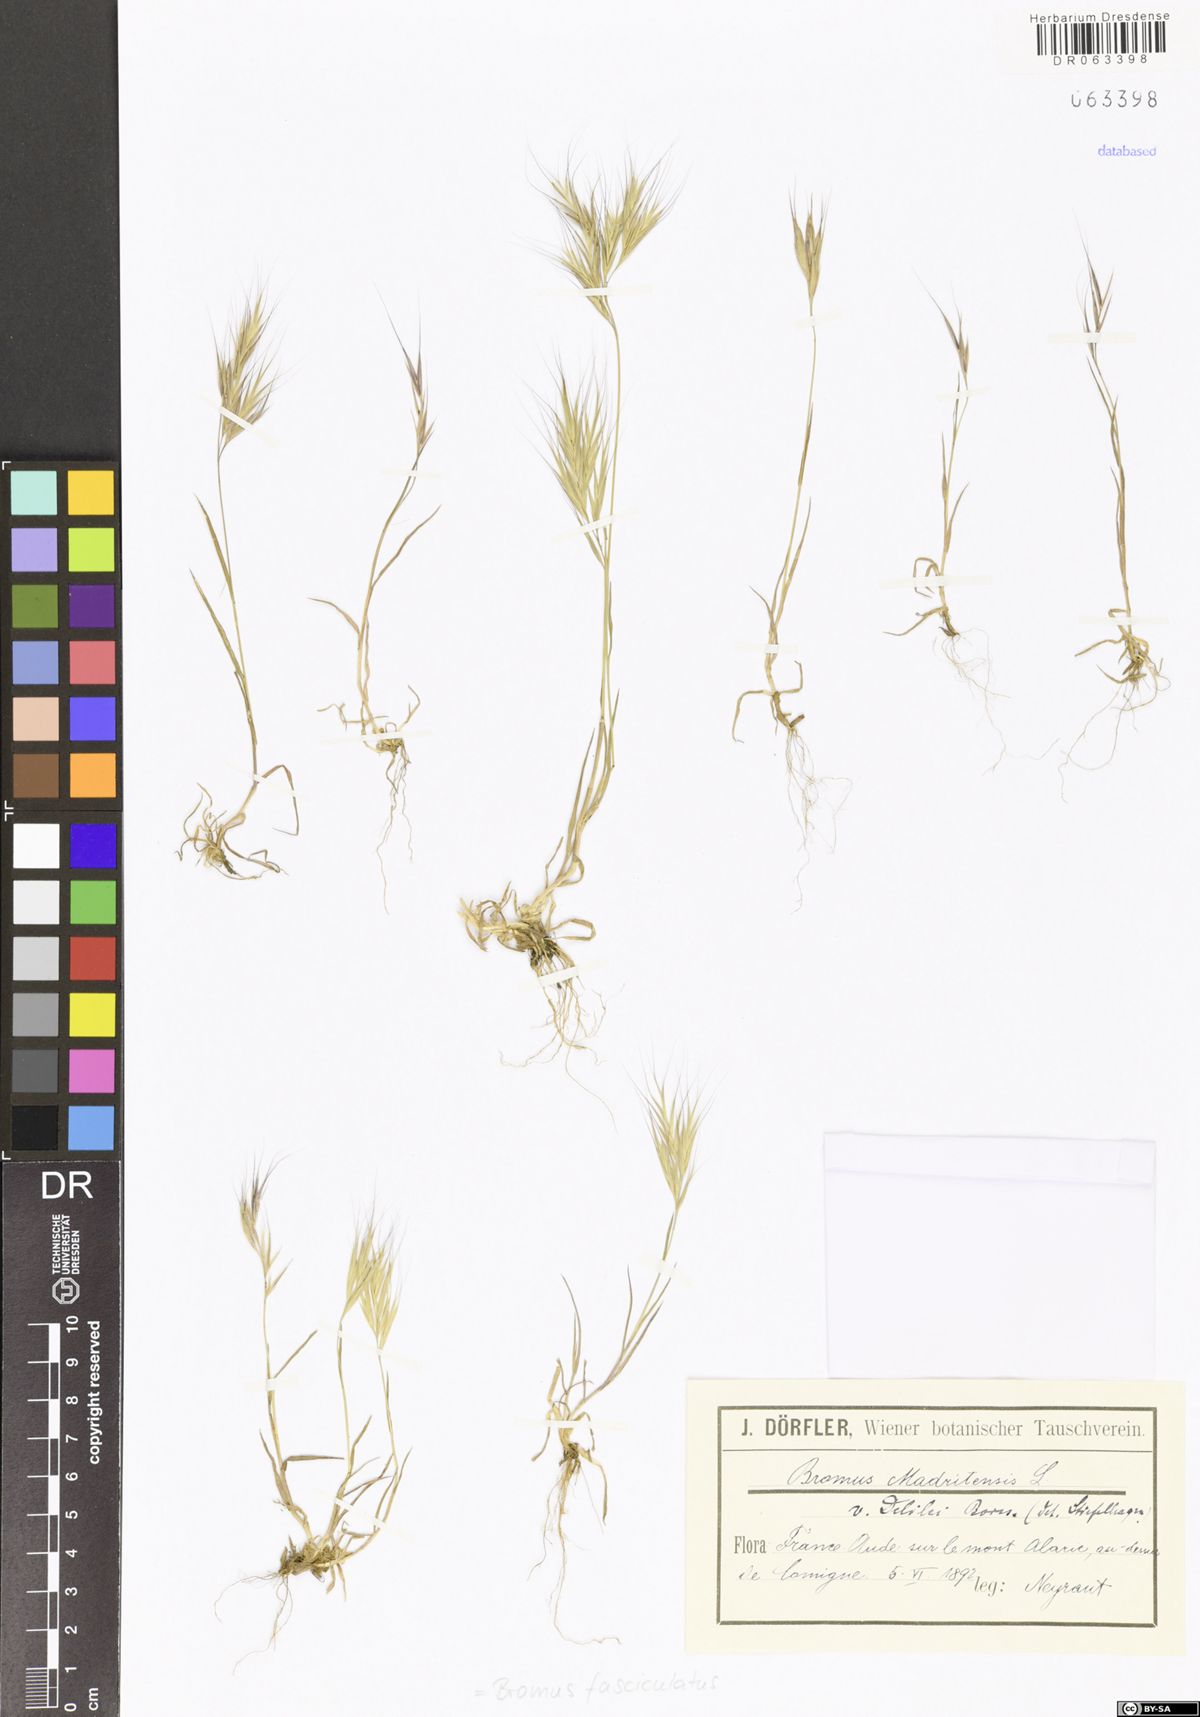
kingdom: Plantae
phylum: Tracheophyta
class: Liliopsida
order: Poales
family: Poaceae
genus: Bromus
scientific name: Bromus fasciculatus
